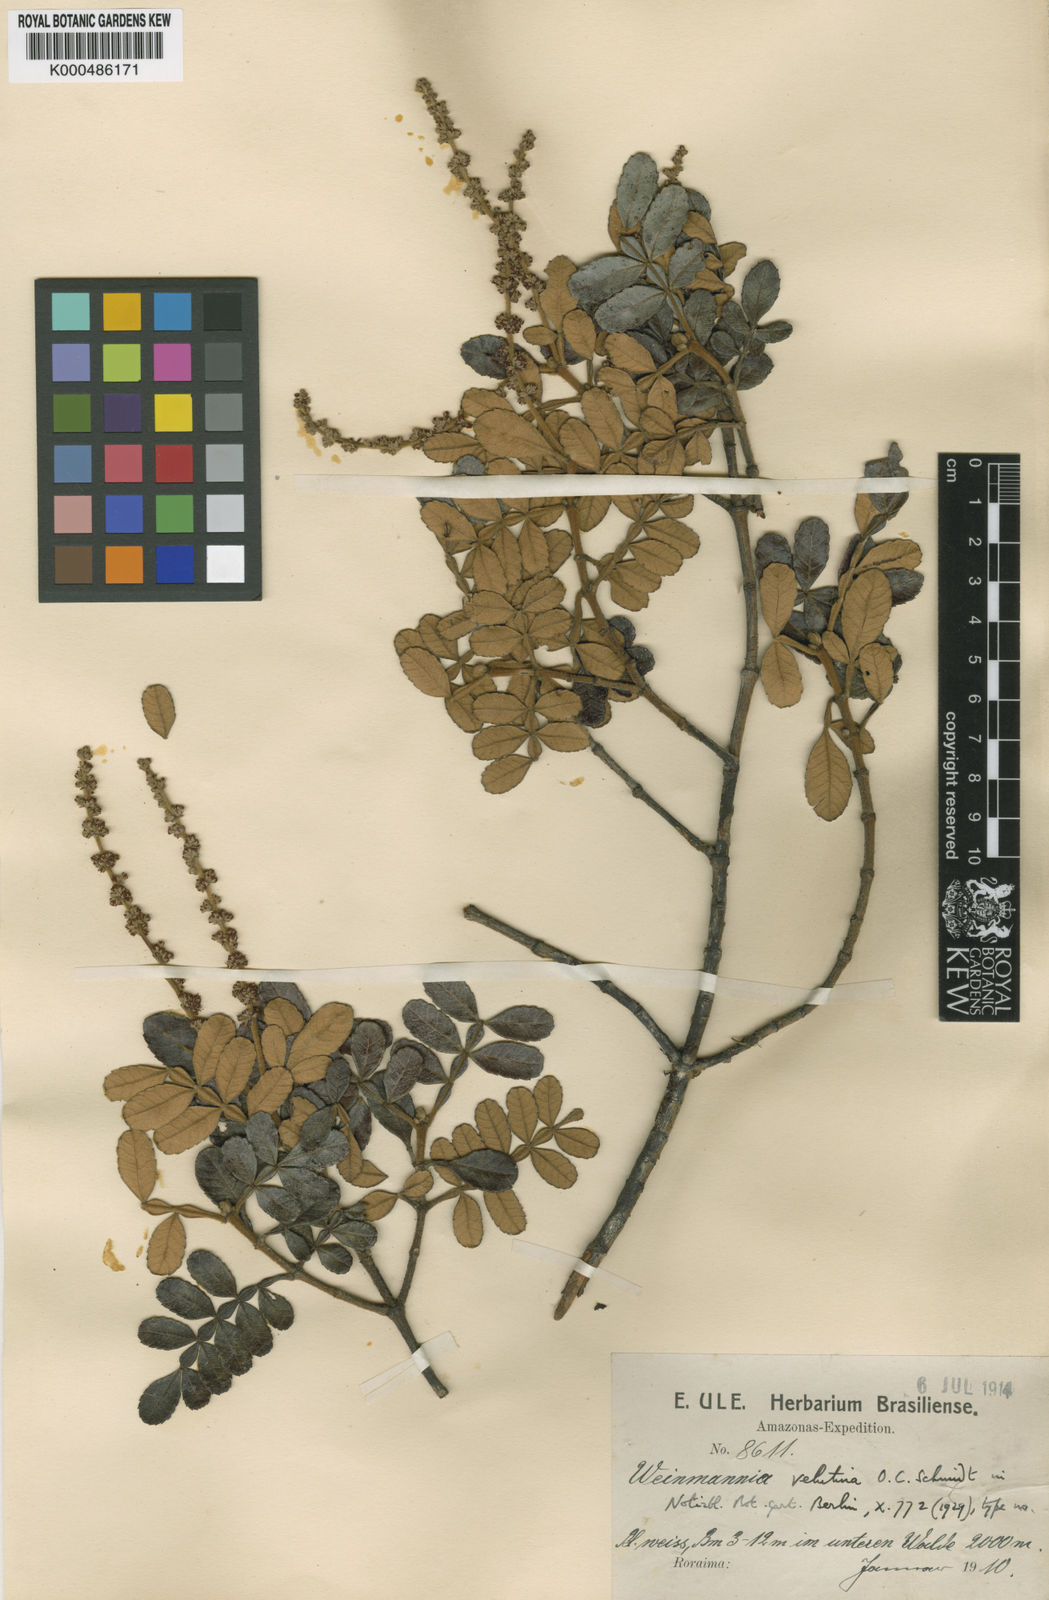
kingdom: Plantae
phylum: Tracheophyta
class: Magnoliopsida
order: Oxalidales
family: Cunoniaceae
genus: Weinmannia
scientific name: Weinmannia velutina
